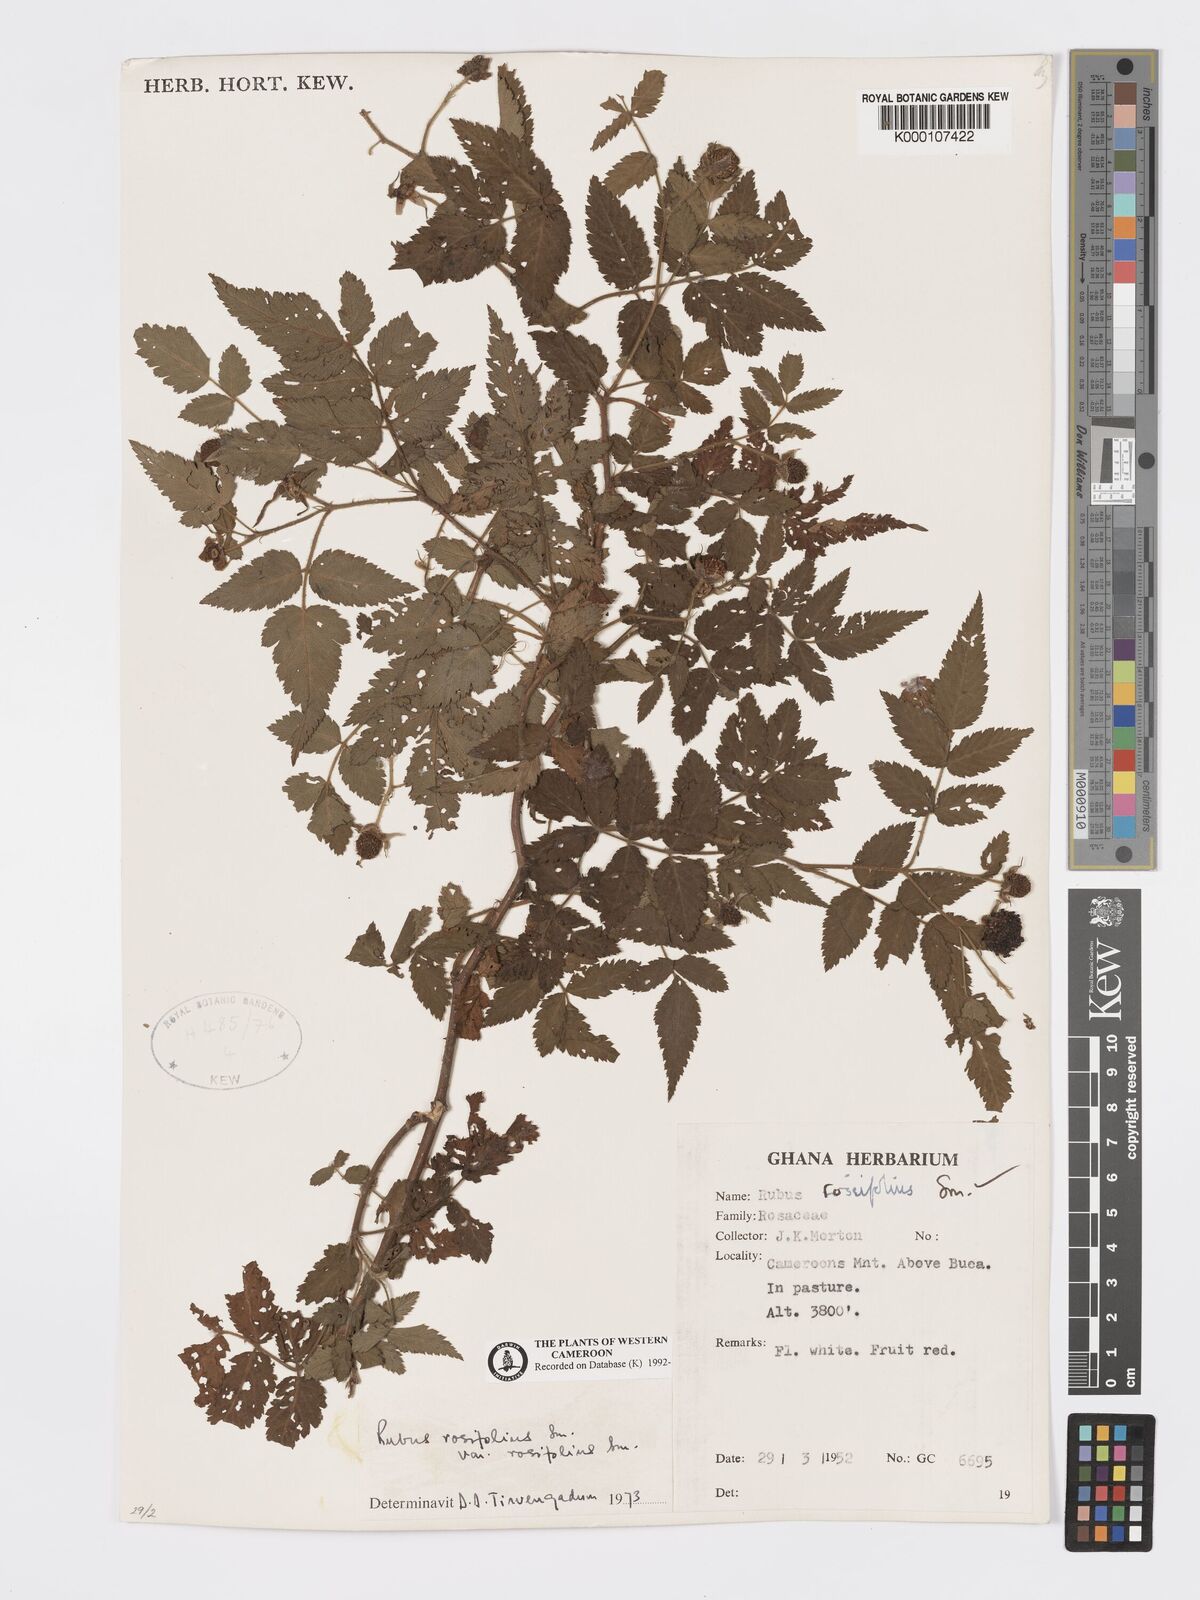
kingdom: Plantae
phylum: Tracheophyta
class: Magnoliopsida
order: Rosales
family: Rosaceae
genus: Rubus
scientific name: Rubus rosifolius
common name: Roseleaf raspberry
